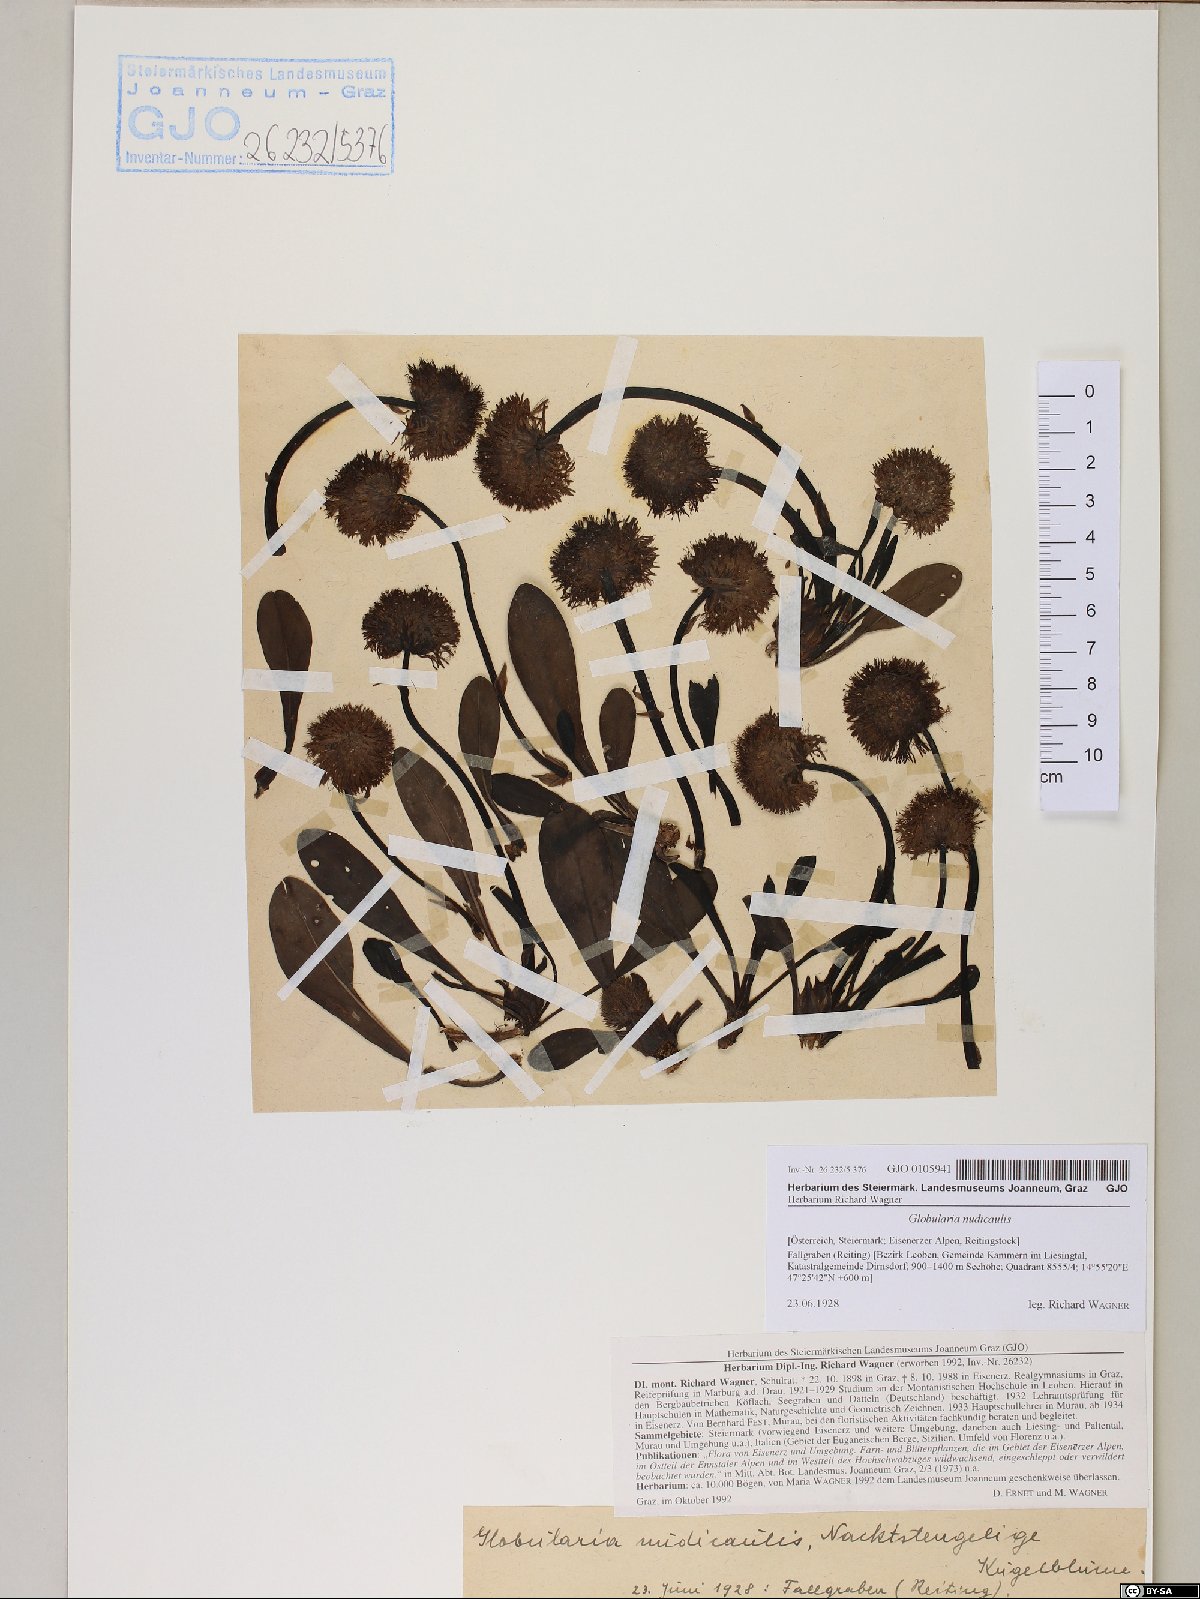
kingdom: Plantae
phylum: Tracheophyta
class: Magnoliopsida
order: Lamiales
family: Plantaginaceae
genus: Globularia
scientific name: Globularia nudicaulis
